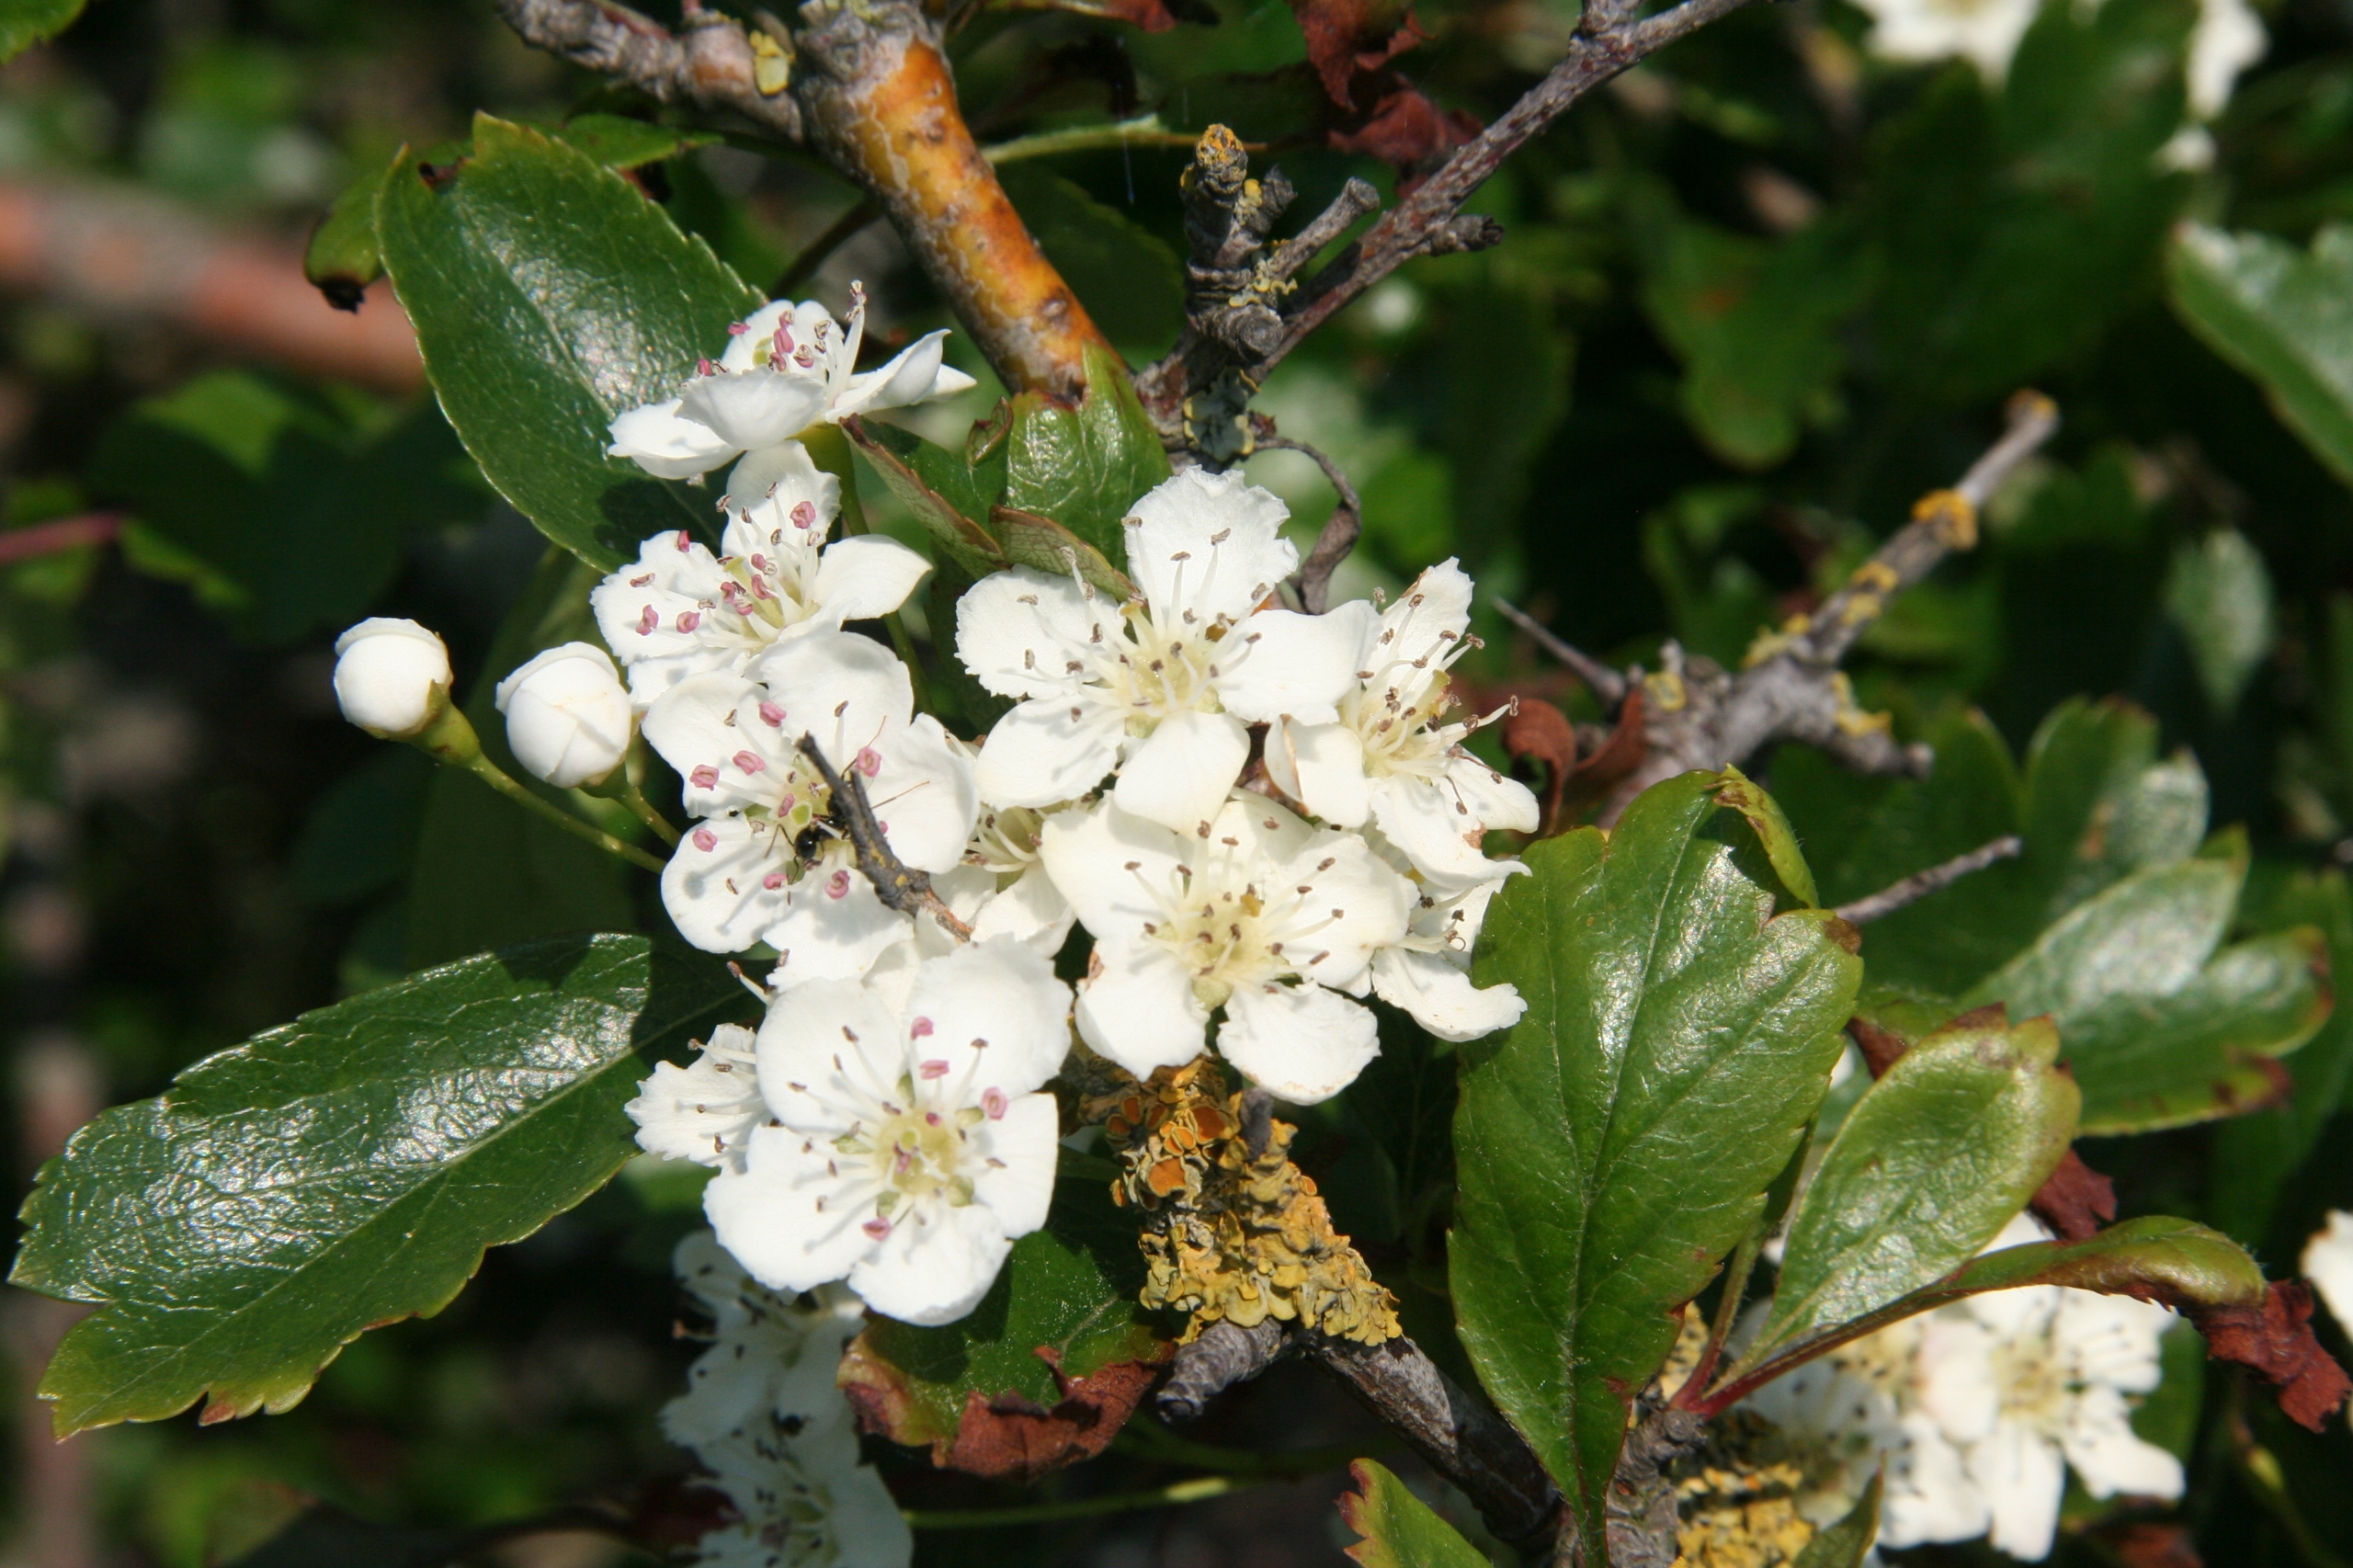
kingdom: Plantae
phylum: Tracheophyta
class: Magnoliopsida
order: Rosales
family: Rosaceae
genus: Crataegus
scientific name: Crataegus laevigata
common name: Almindelig hvidtjørn
